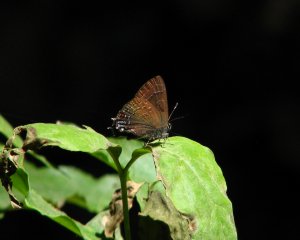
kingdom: Animalia
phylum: Arthropoda
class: Insecta
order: Lepidoptera
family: Lycaenidae
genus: Satyrium
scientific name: Satyrium calanus
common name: Banded Hairstreak
